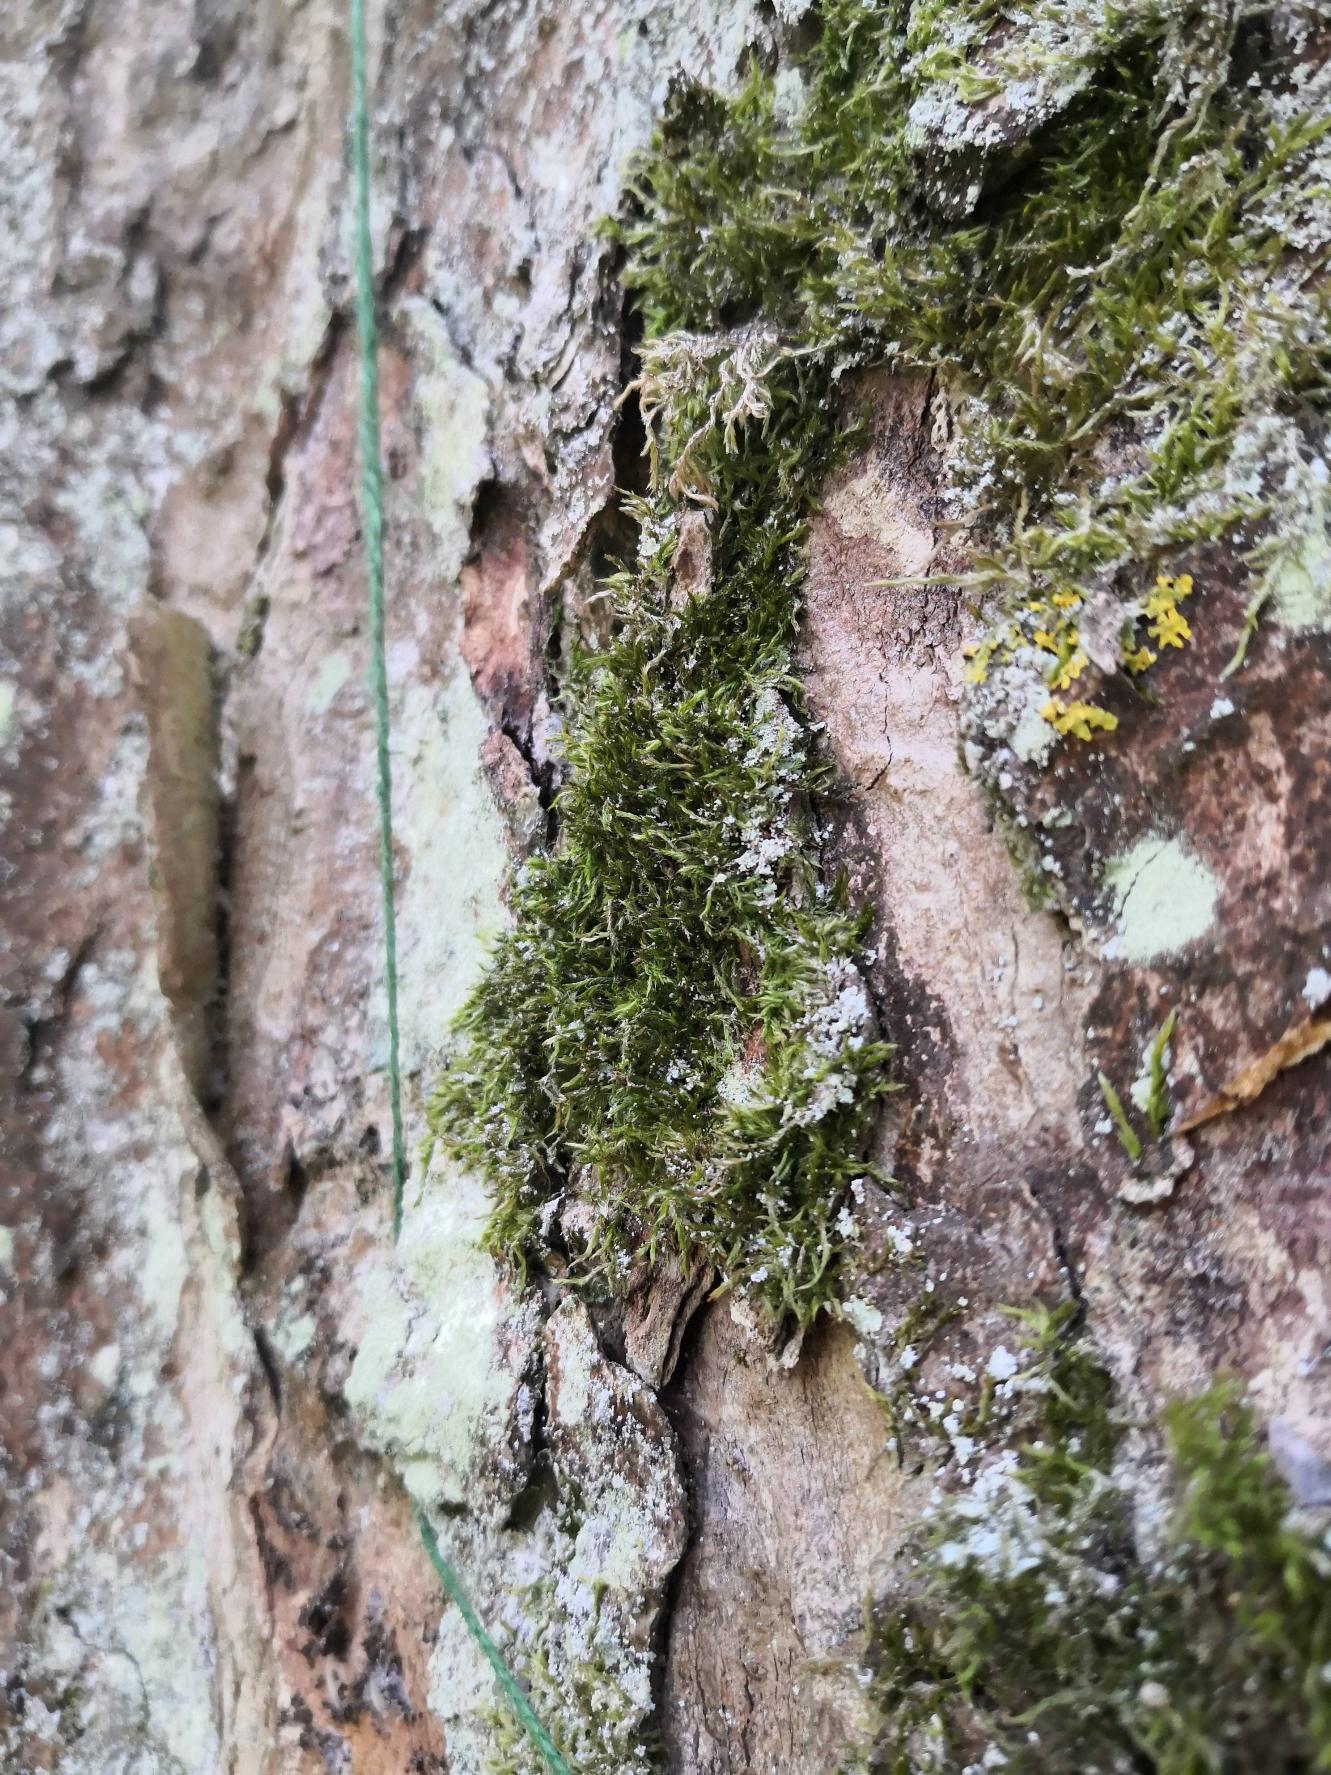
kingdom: Plantae
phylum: Bryophyta
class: Bryopsida
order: Hypnales
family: Hypnaceae
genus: Hypnum
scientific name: Hypnum
